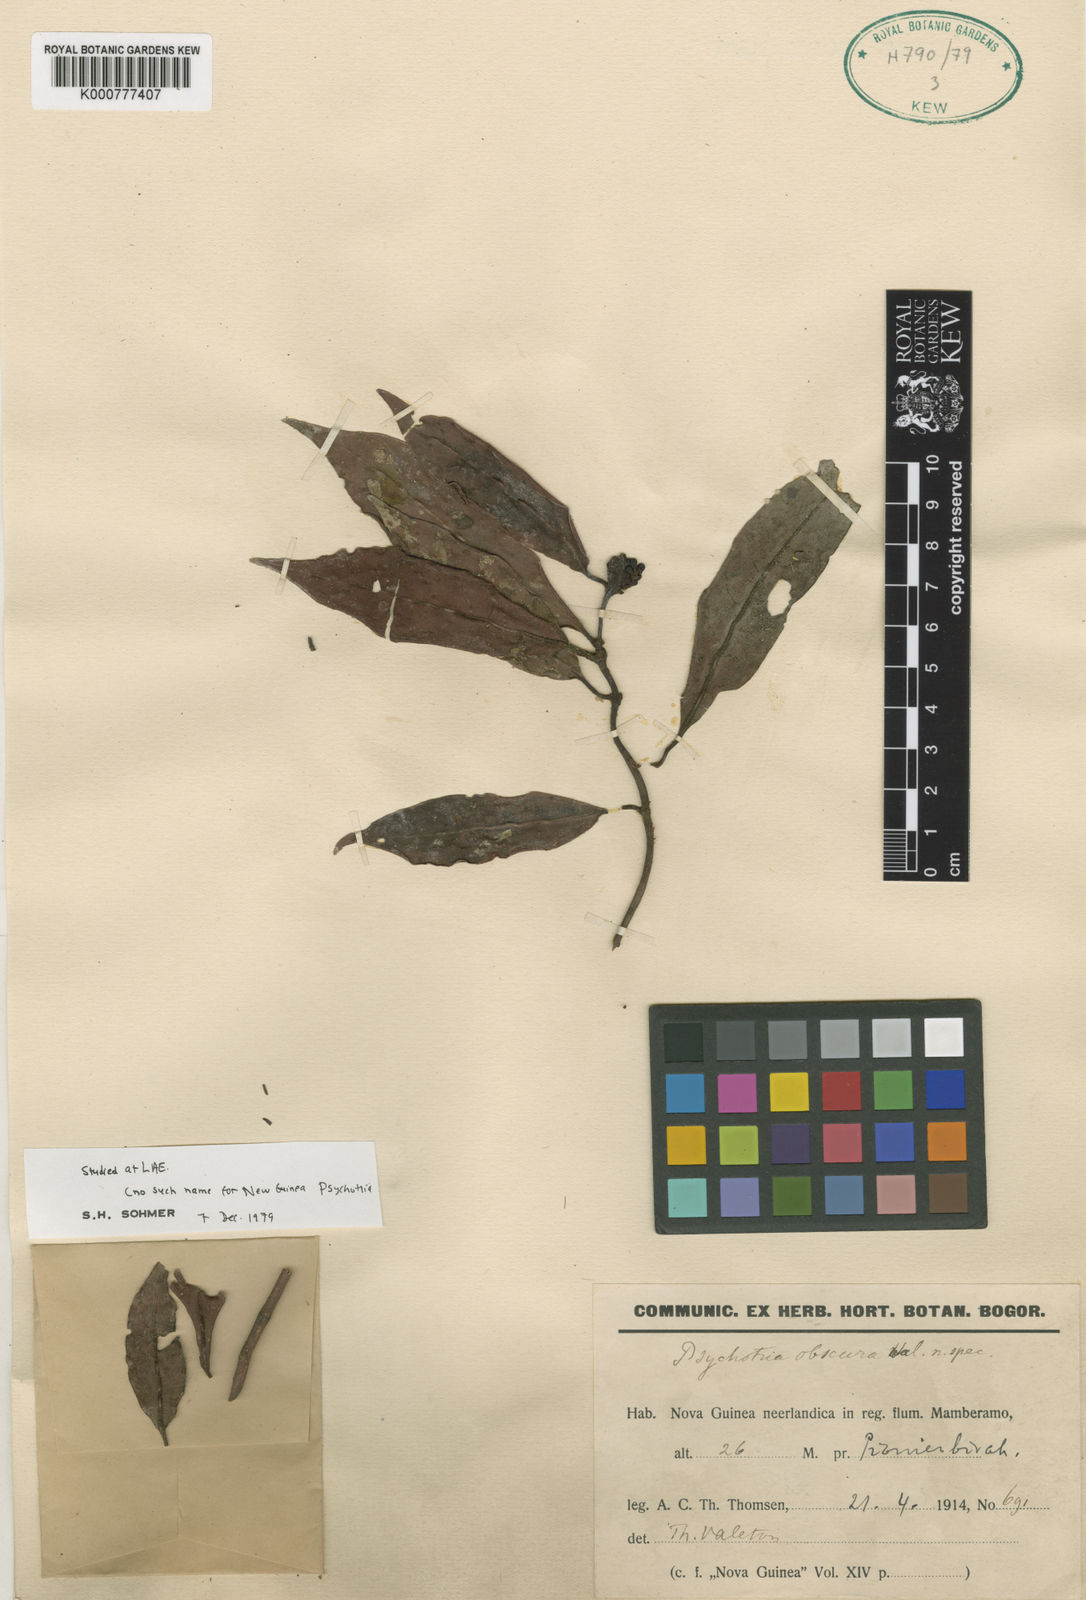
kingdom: Plantae
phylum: Tracheophyta
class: Magnoliopsida
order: Gentianales
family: Rubiaceae
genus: Psychotria
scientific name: Psychotria beaufortiensis
